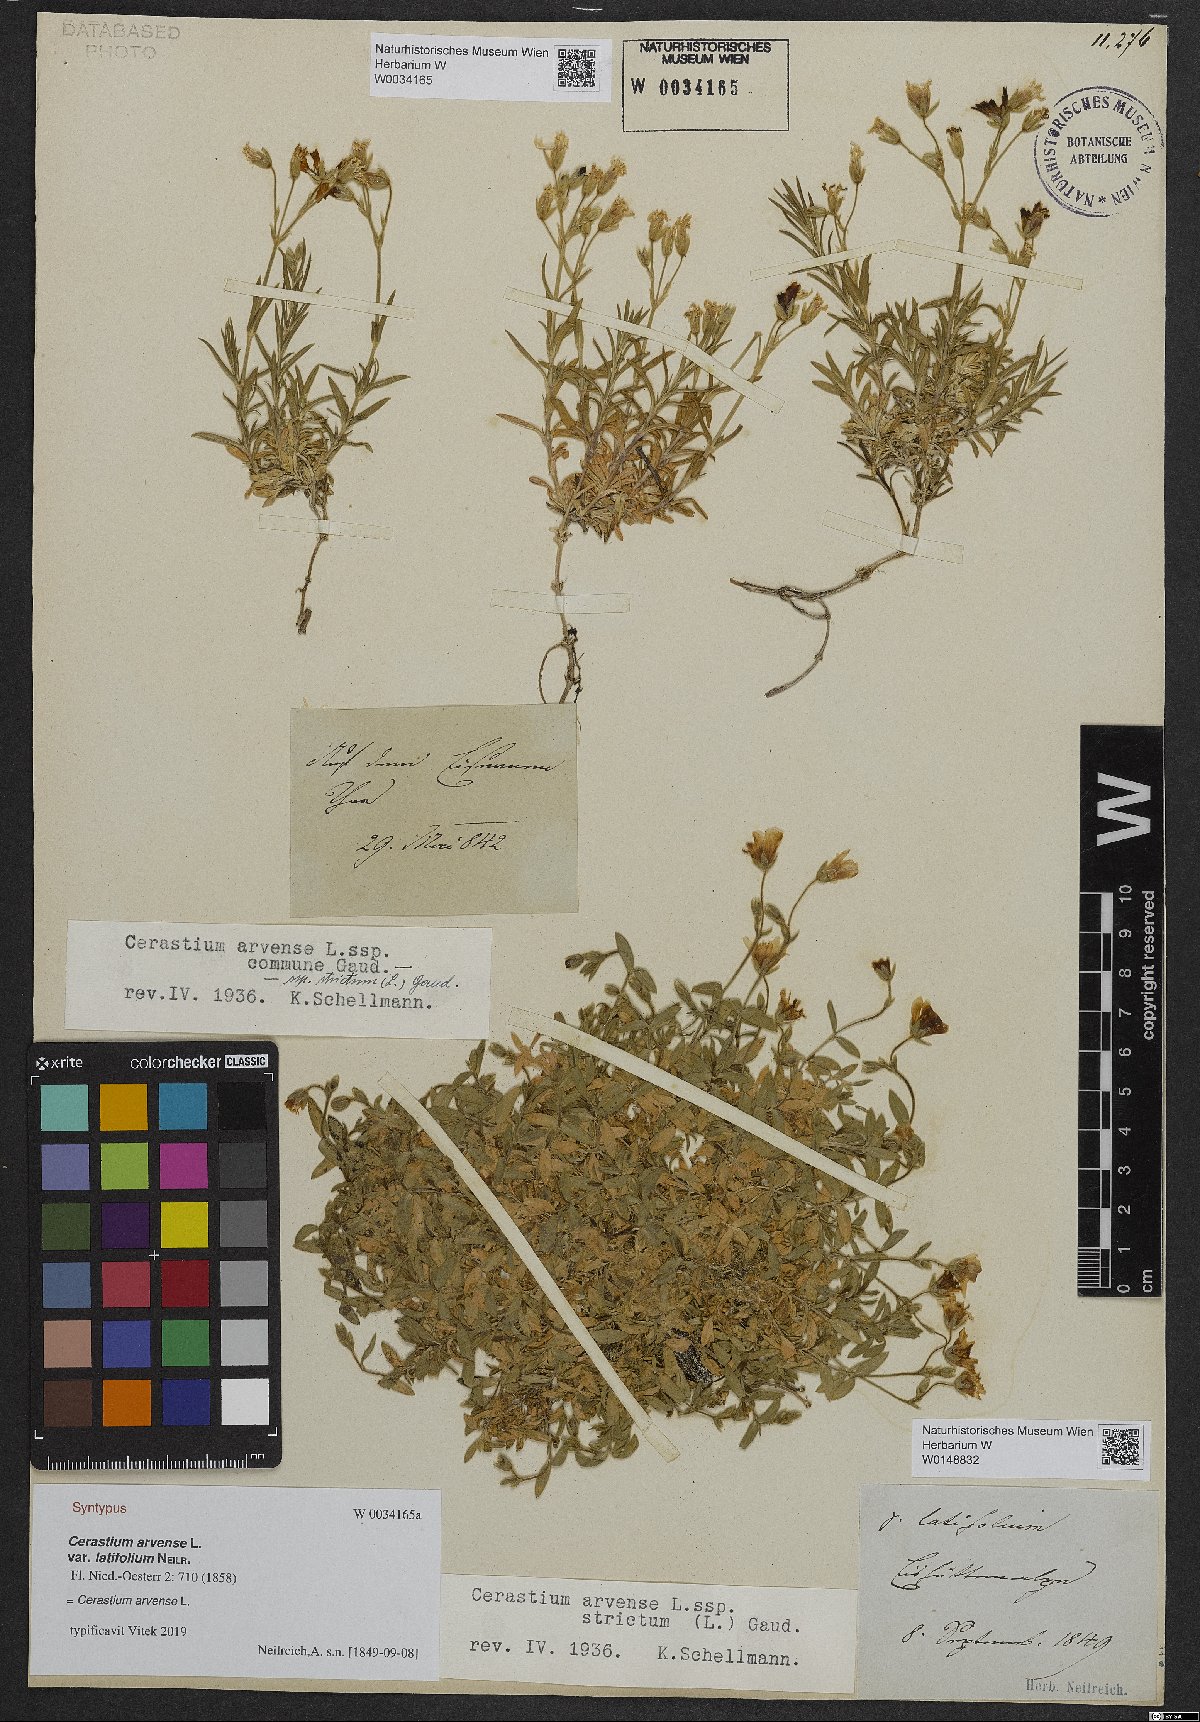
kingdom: Plantae
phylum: Tracheophyta
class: Magnoliopsida
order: Caryophyllales
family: Caryophyllaceae
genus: Cerastium
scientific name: Cerastium arvense
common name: Field mouse-ear
